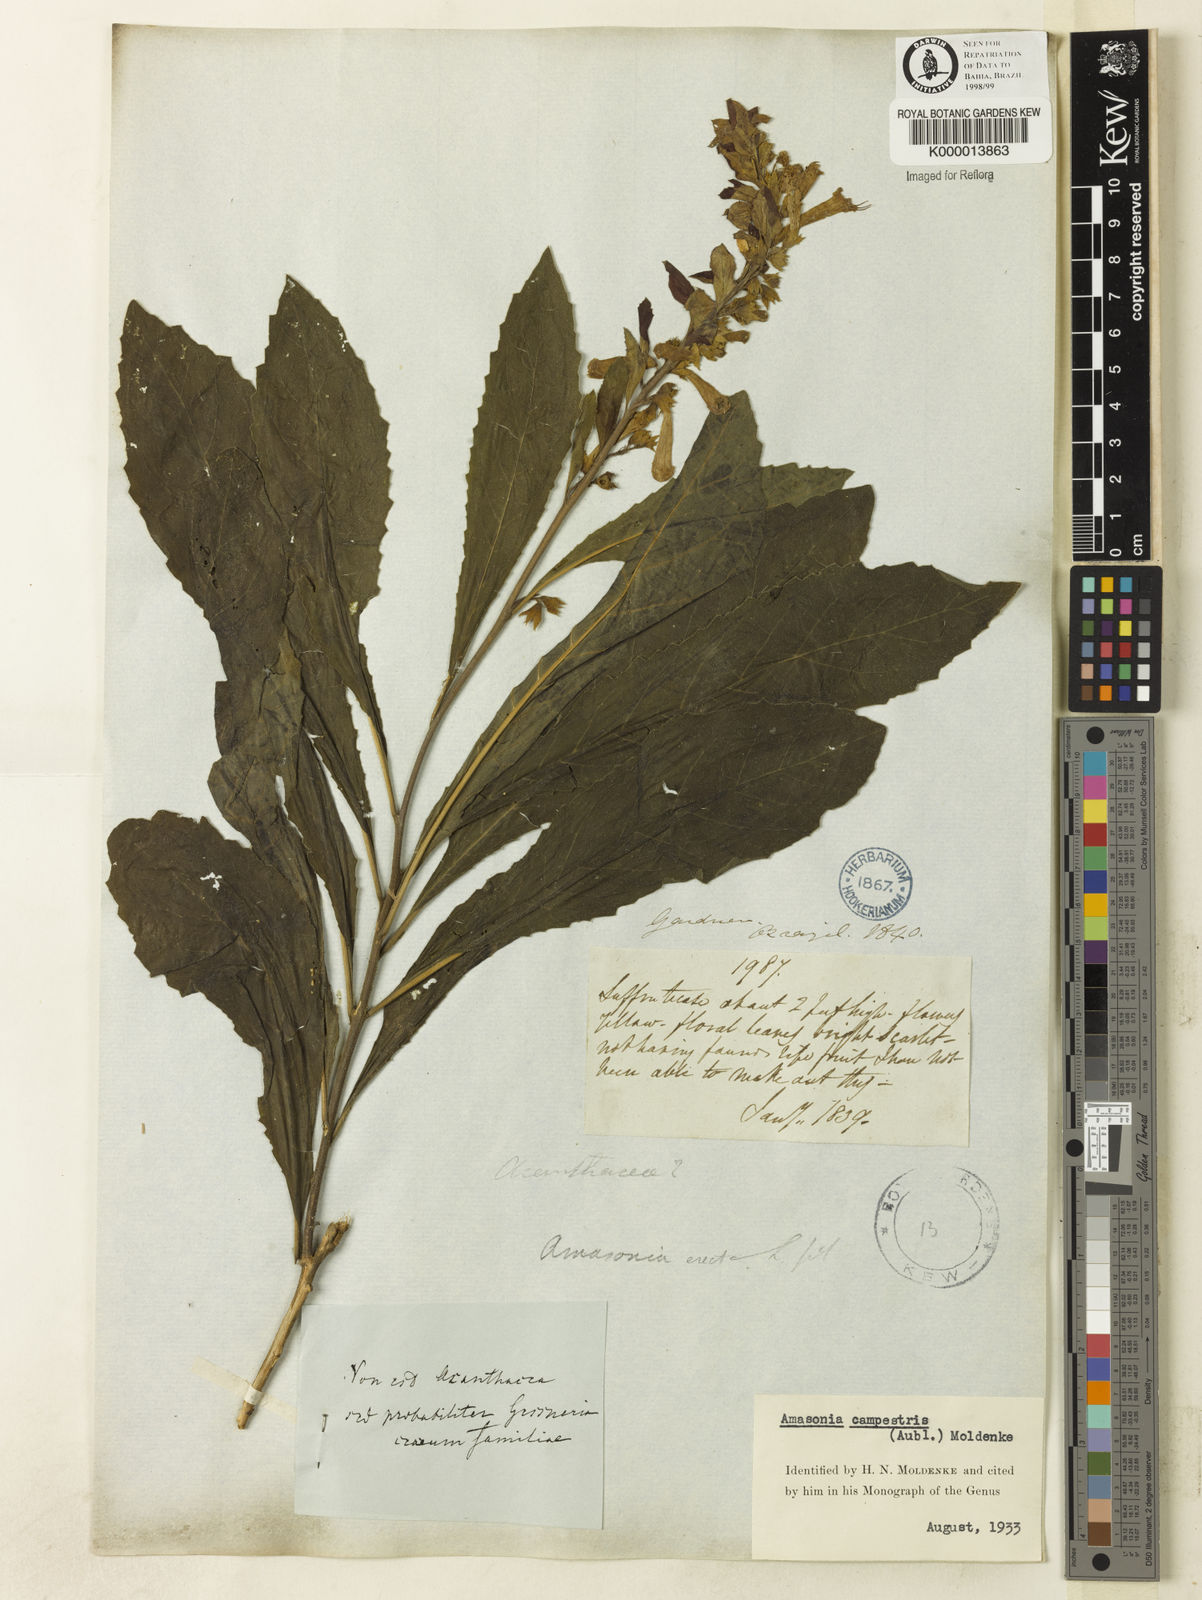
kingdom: Plantae
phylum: Tracheophyta
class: Magnoliopsida
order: Lamiales
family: Lamiaceae
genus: Amasonia
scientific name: Amasonia campestris
